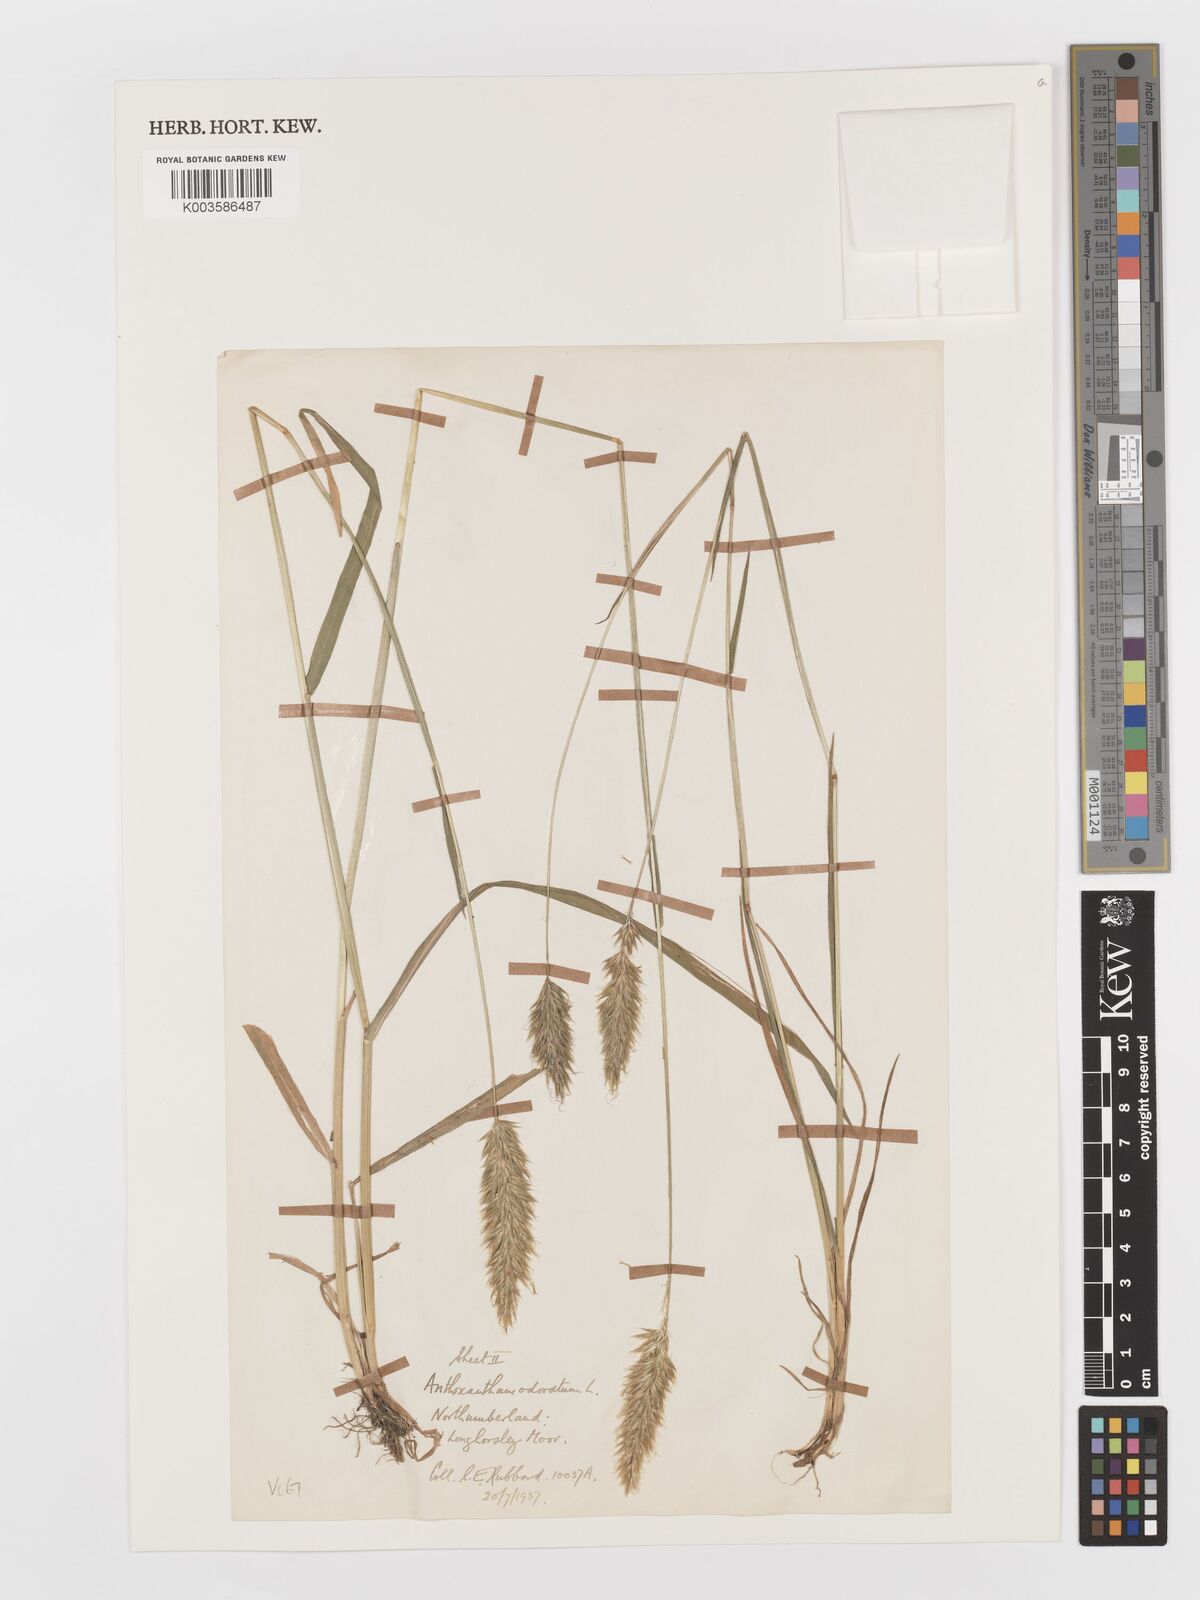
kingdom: Plantae
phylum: Tracheophyta
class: Liliopsida
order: Poales
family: Poaceae
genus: Anthoxanthum
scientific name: Anthoxanthum odoratum
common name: Sweet vernalgrass
